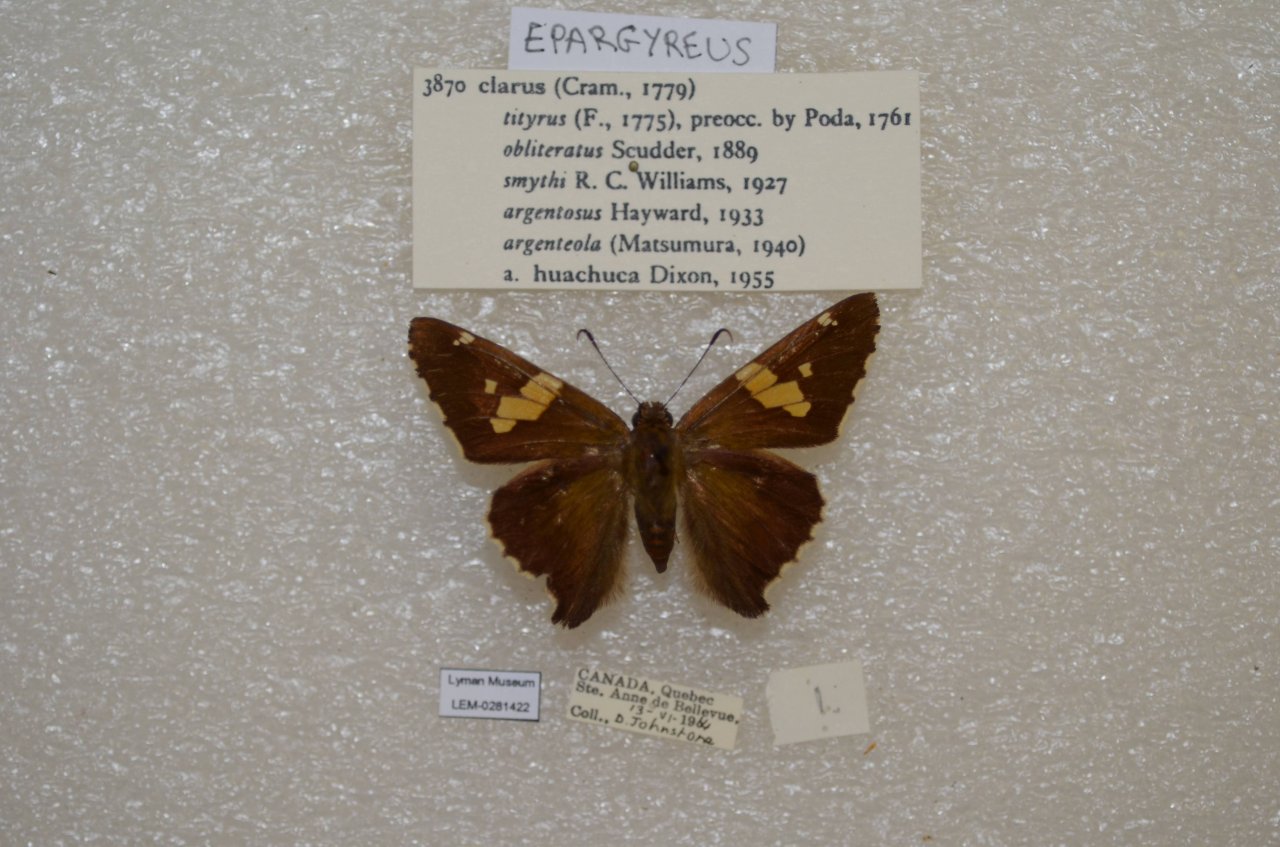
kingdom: Animalia
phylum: Arthropoda
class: Insecta
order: Lepidoptera
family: Hesperiidae
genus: Epargyreus
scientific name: Epargyreus clarus
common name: Silver-spotted Skipper
